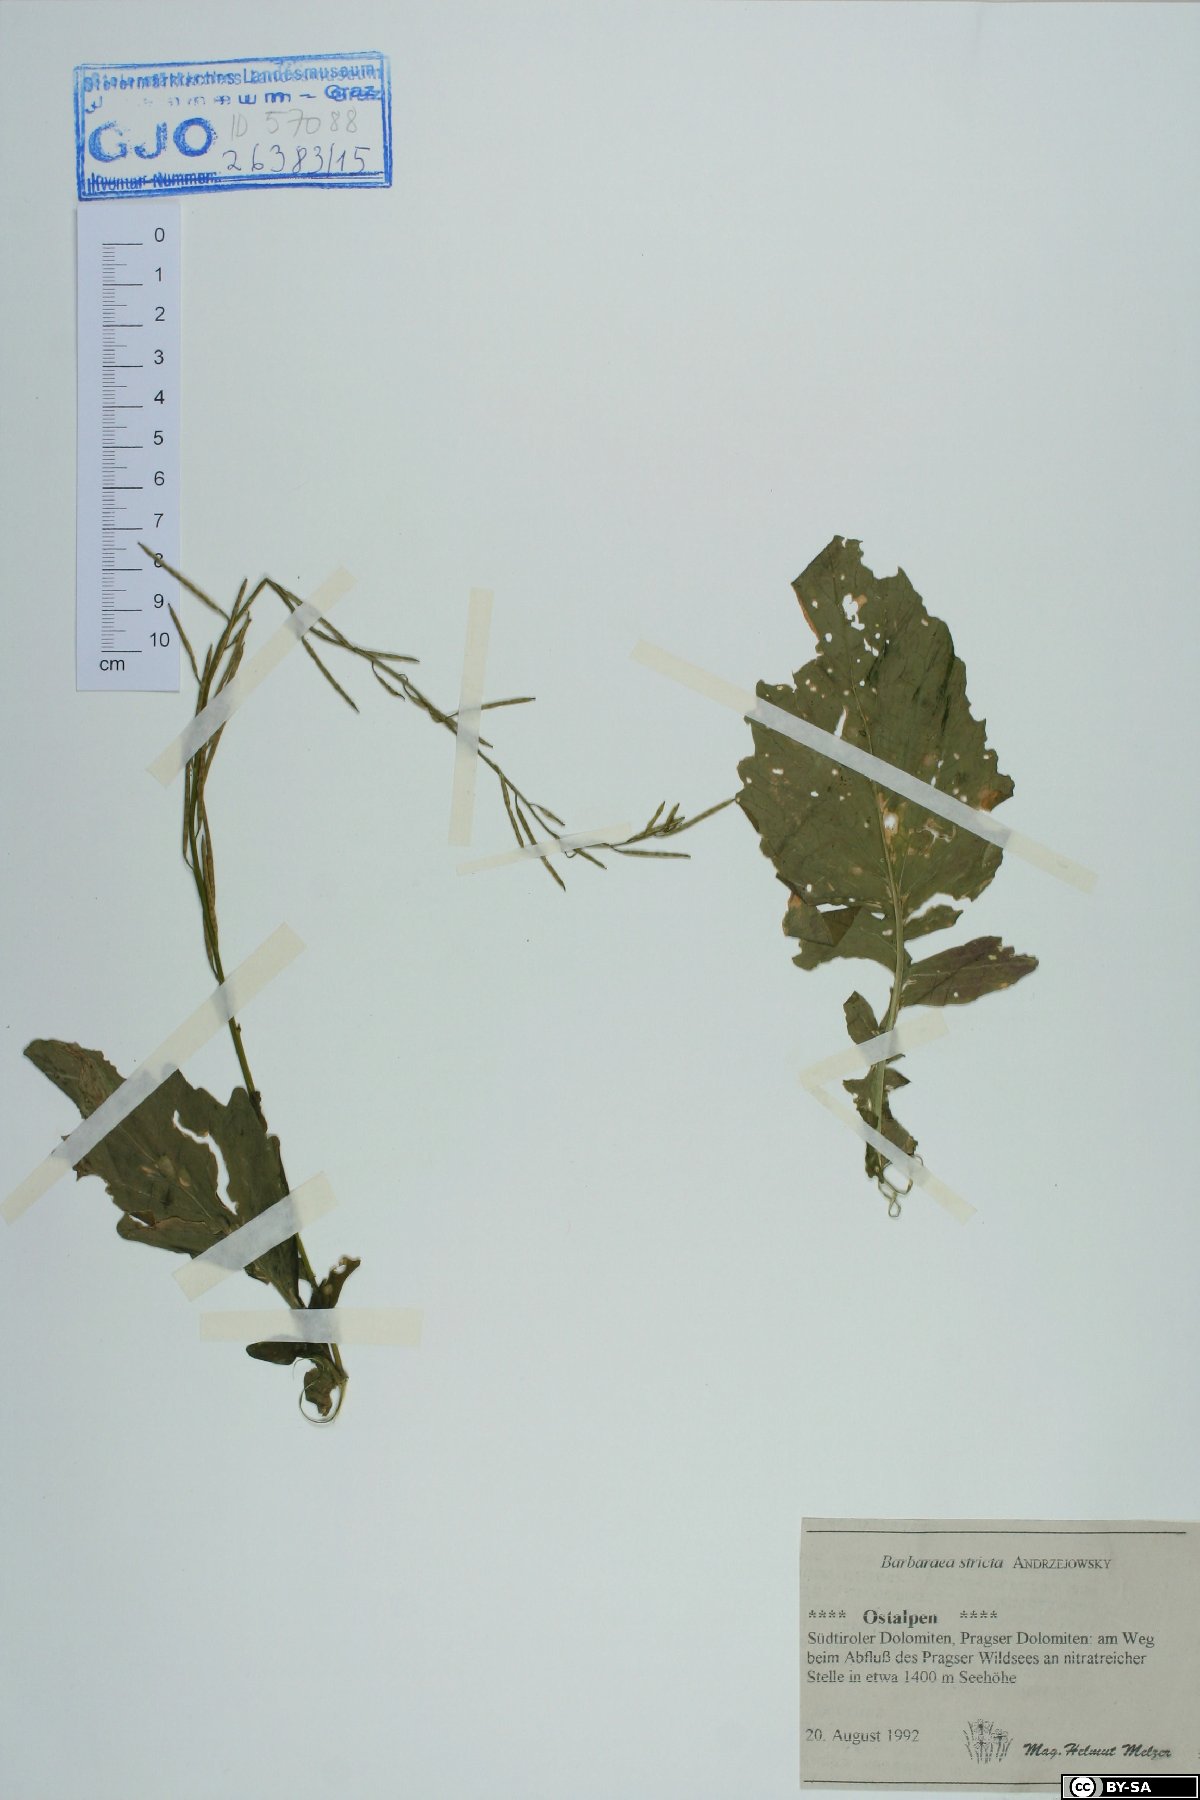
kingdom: Plantae
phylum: Tracheophyta
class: Magnoliopsida
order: Brassicales
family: Brassicaceae
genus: Barbarea
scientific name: Barbarea stricta
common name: Small-flowered winter-cress
